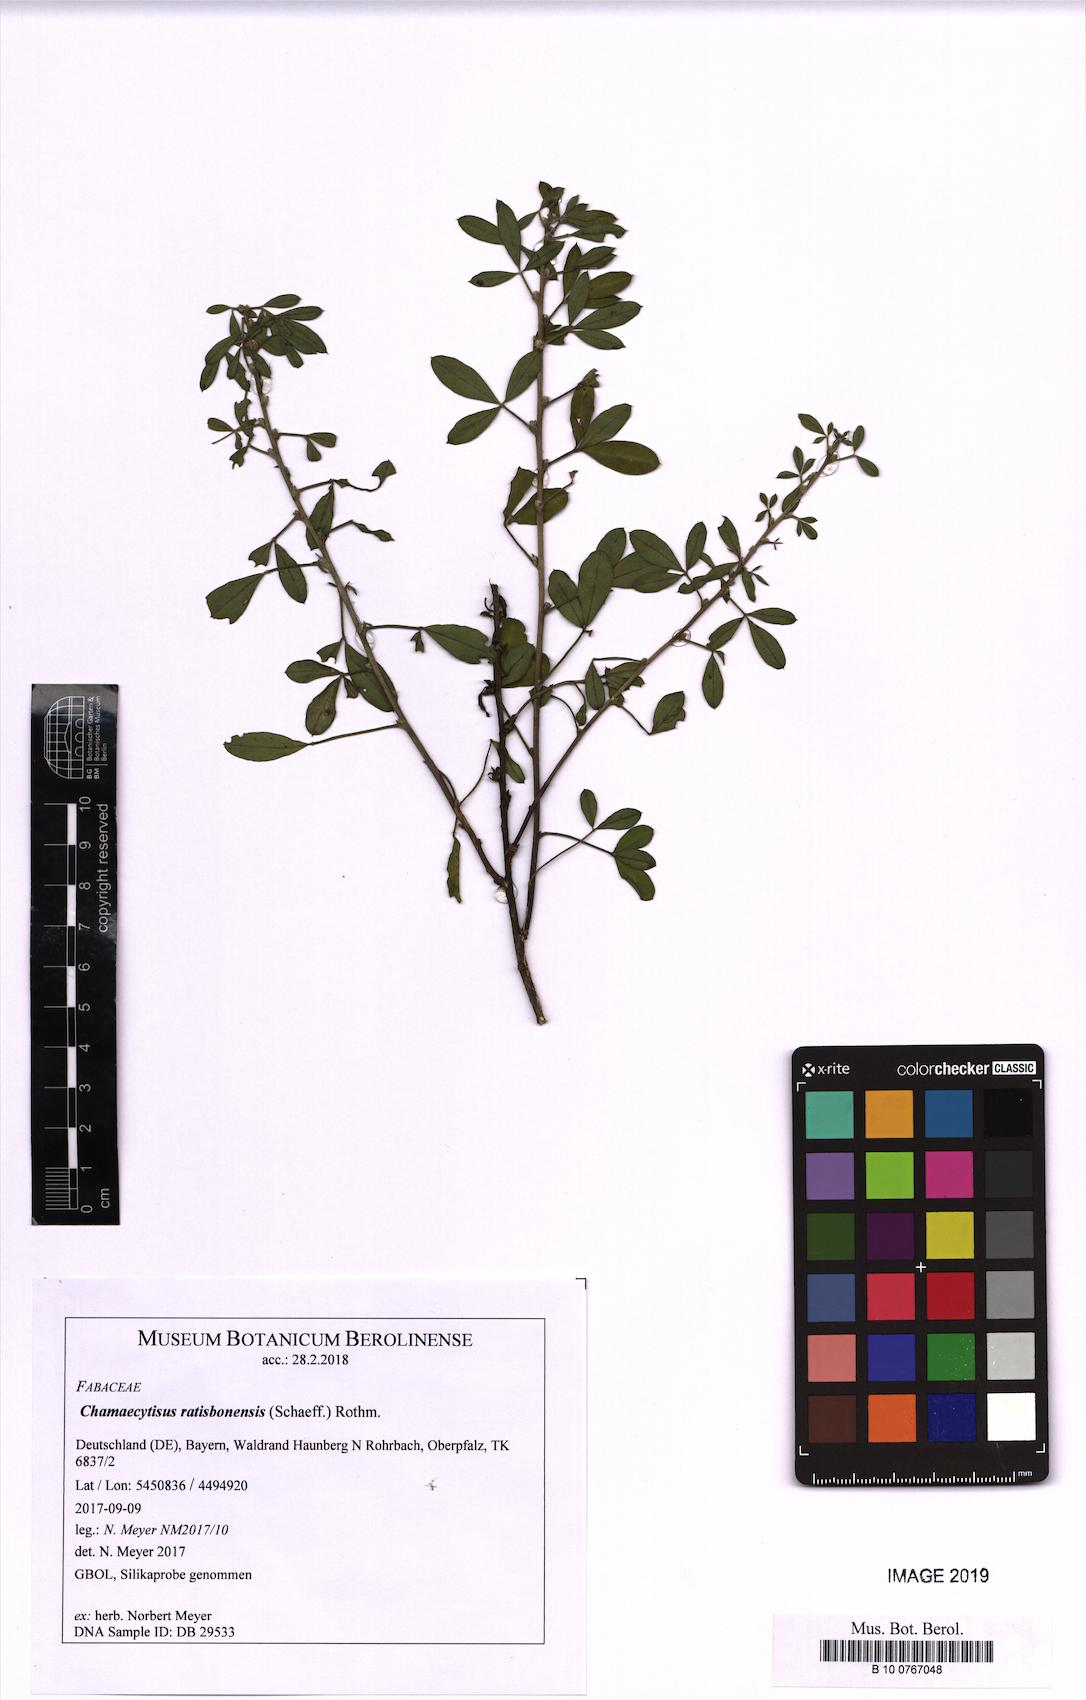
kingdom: Plantae
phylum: Tracheophyta
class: Magnoliopsida
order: Fabales
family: Fabaceae
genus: Chamaecytisus
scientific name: Chamaecytisus ratisbonensis
